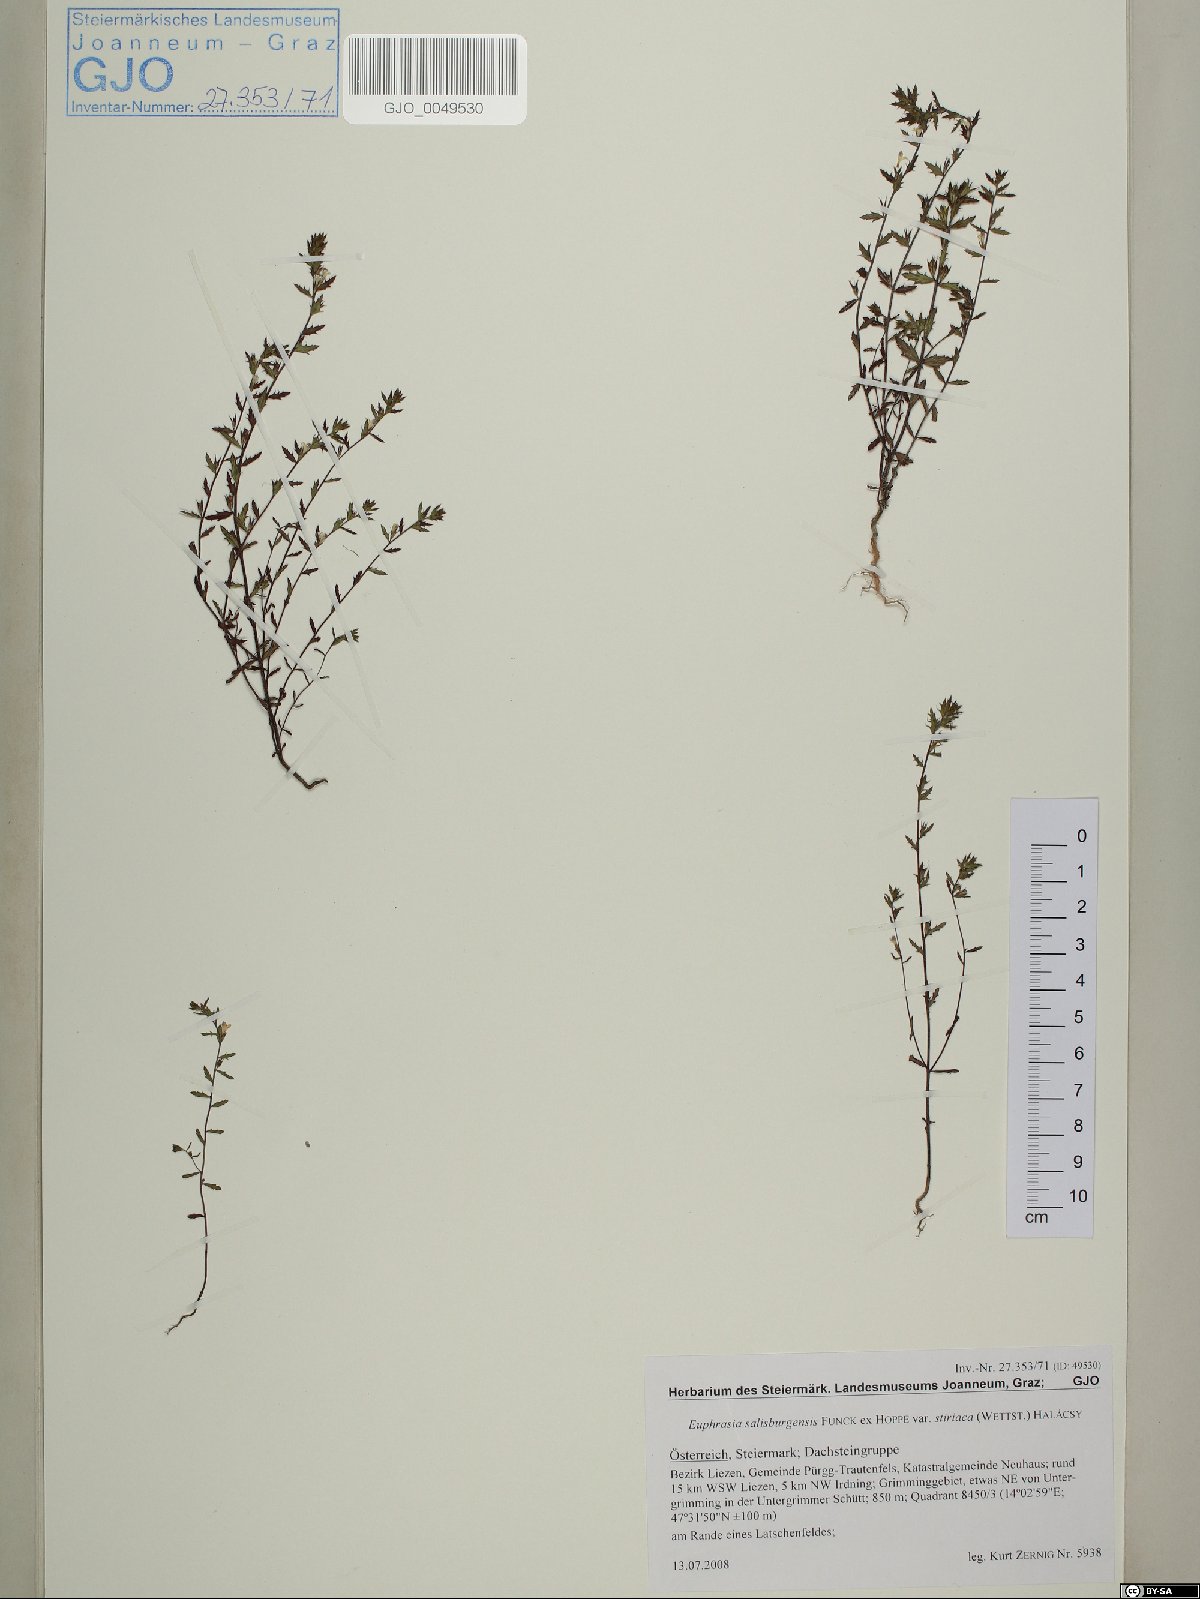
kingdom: Plantae
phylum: Tracheophyta
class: Magnoliopsida
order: Lamiales
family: Orobanchaceae
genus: Euphrasia
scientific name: Euphrasia salisburgensis
